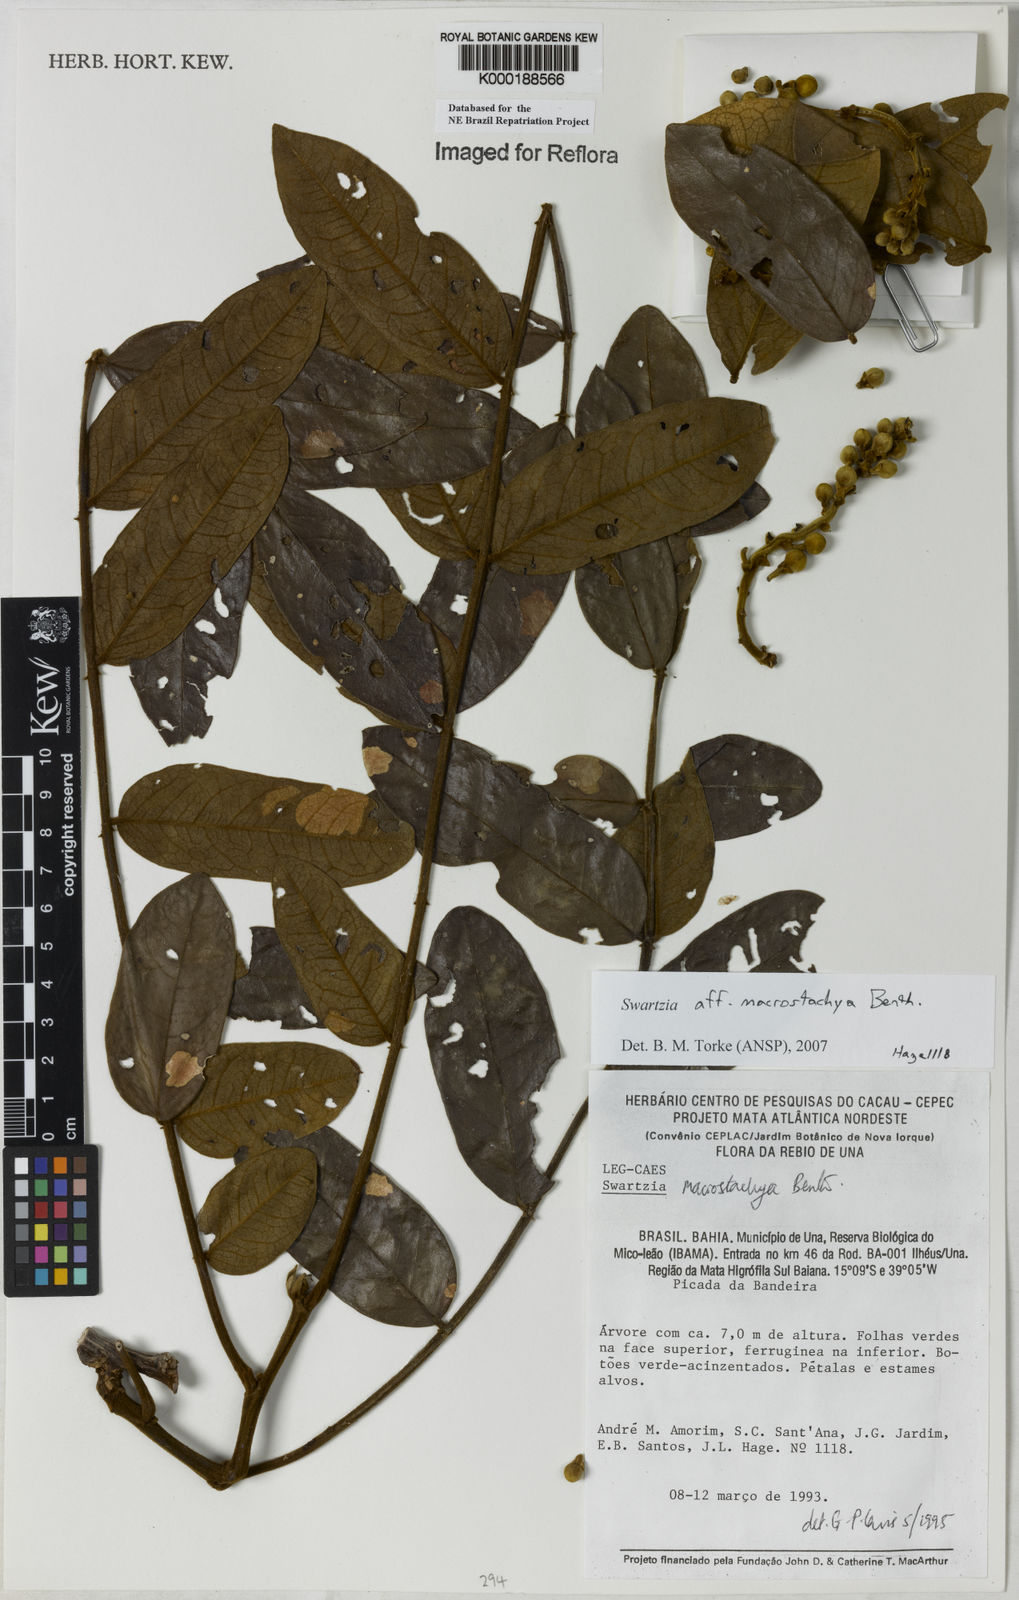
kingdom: Plantae
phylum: Tracheophyta
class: Magnoliopsida
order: Fabales
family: Fabaceae
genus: Swartzia
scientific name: Swartzia
